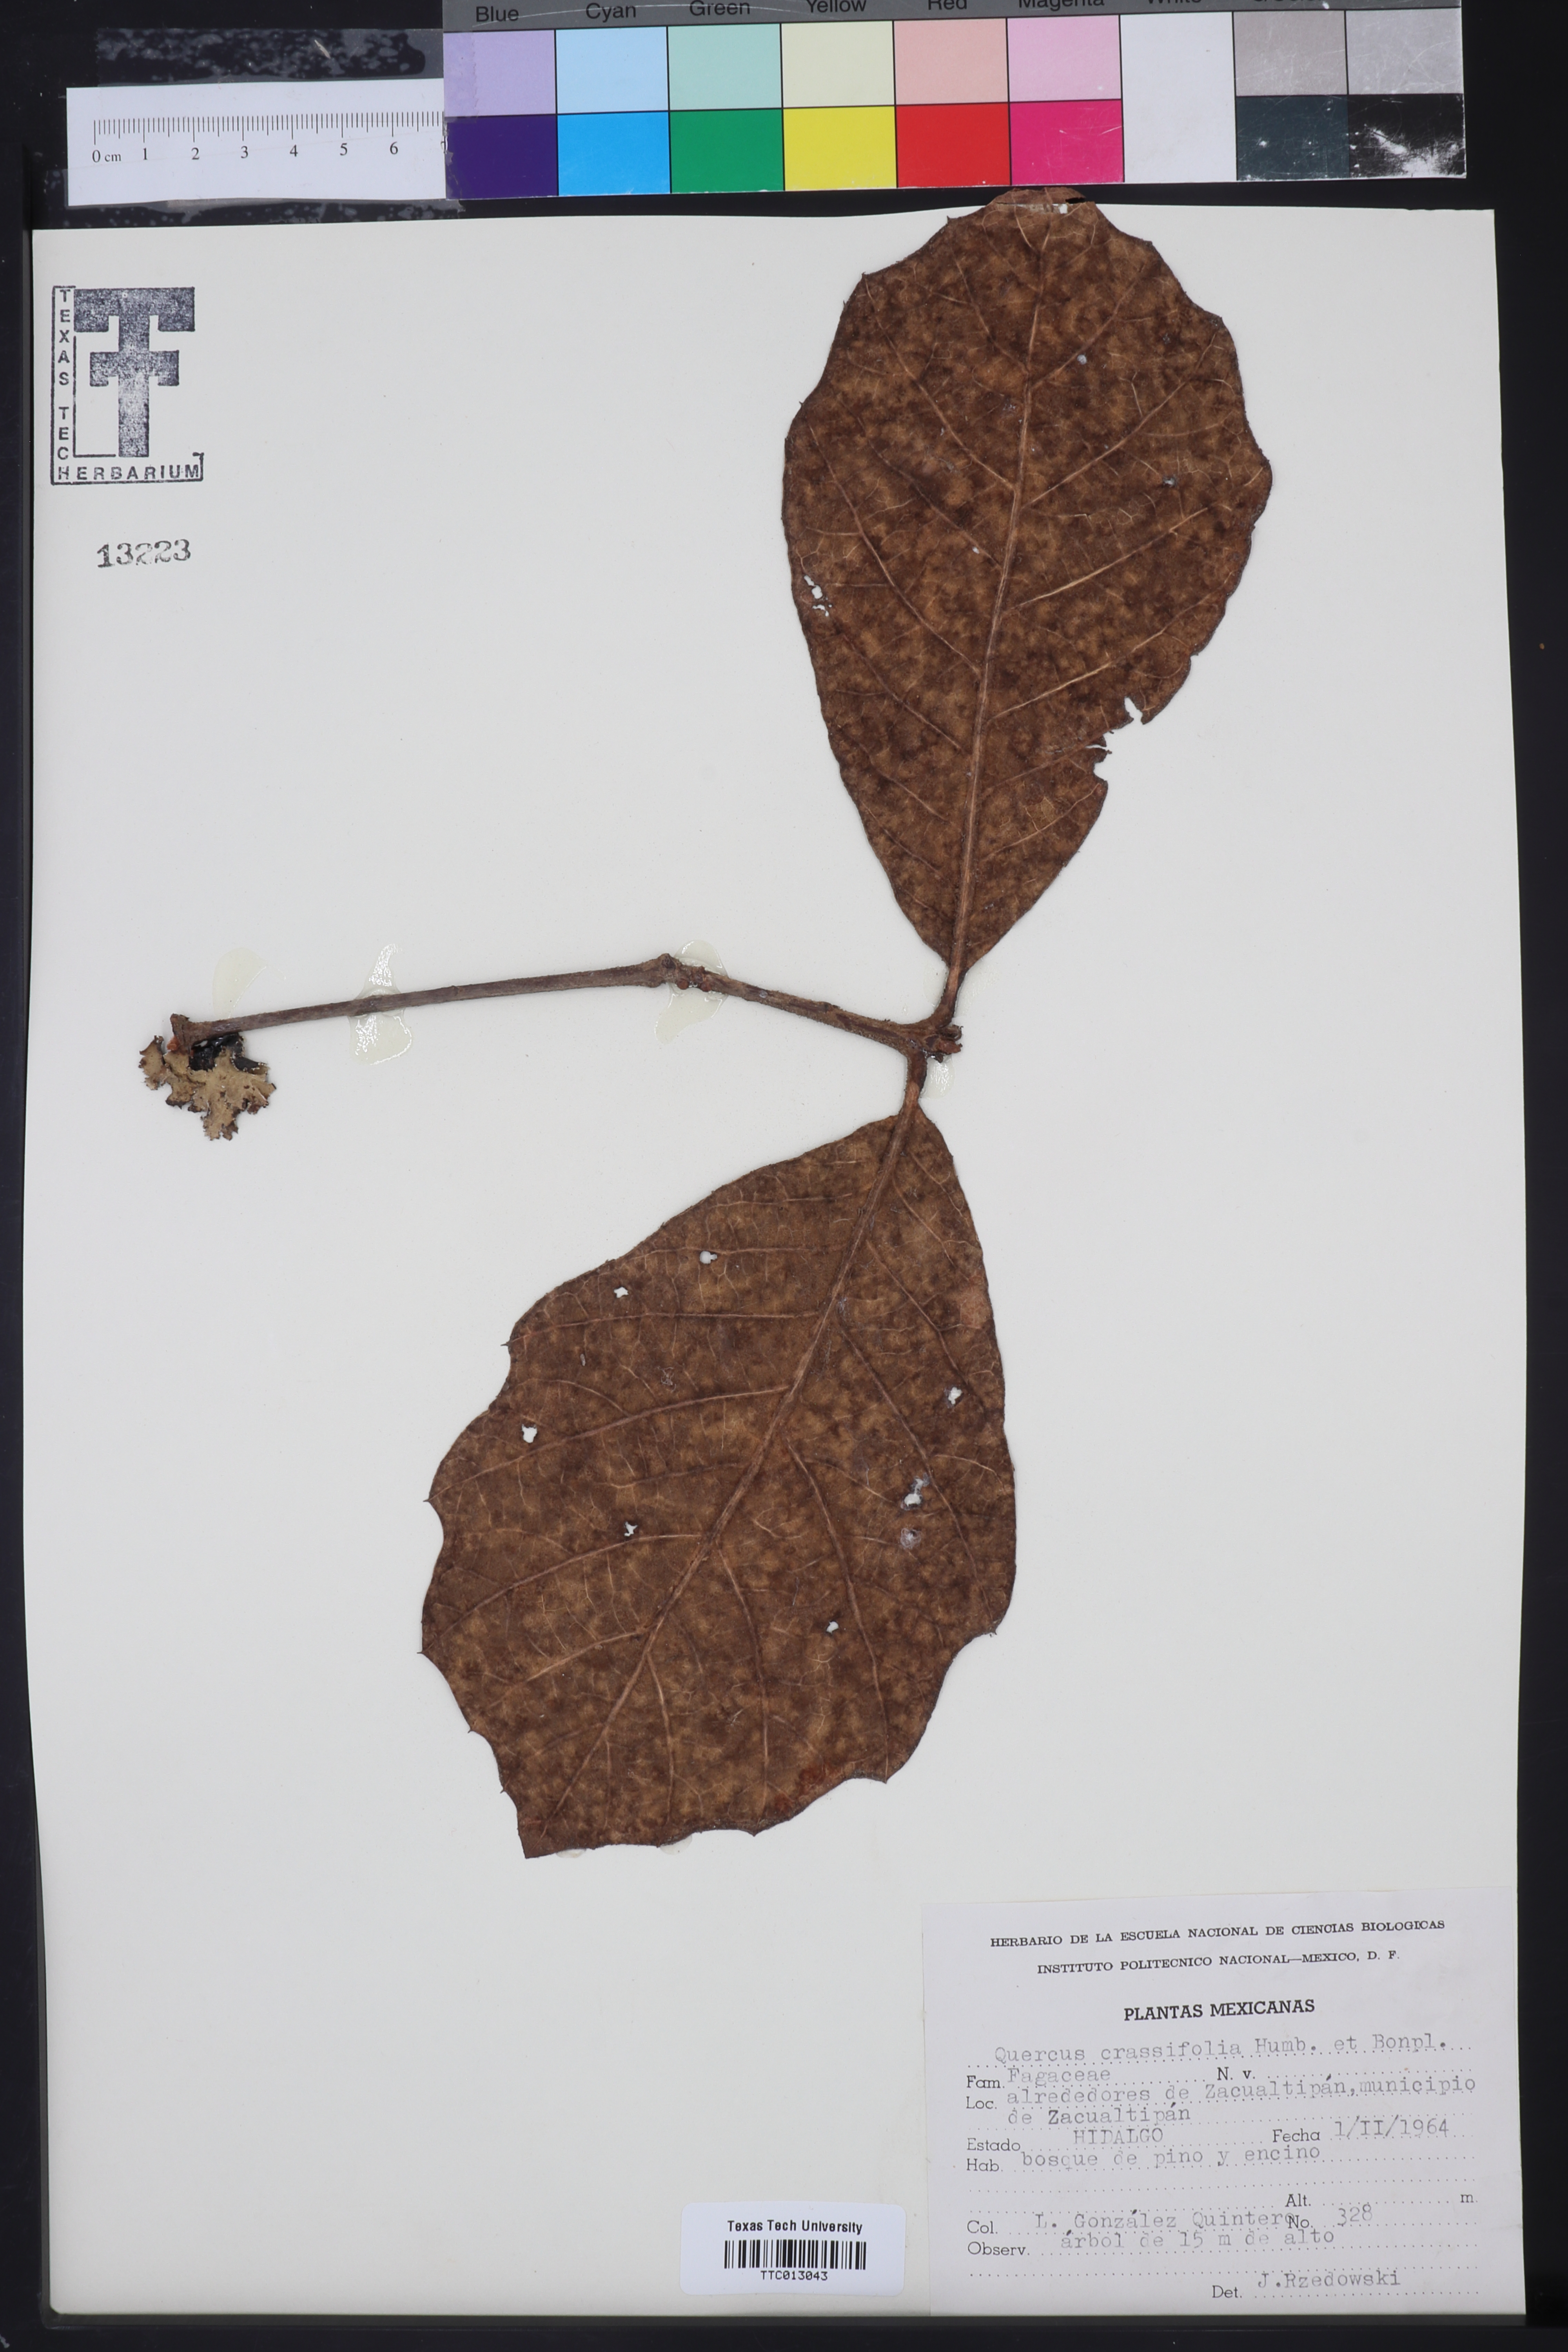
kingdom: Plantae
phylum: Tracheophyta
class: Magnoliopsida
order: Fagales
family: Fagaceae
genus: Quercus
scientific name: Quercus crassifolia
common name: Leather leaf mexican oak
